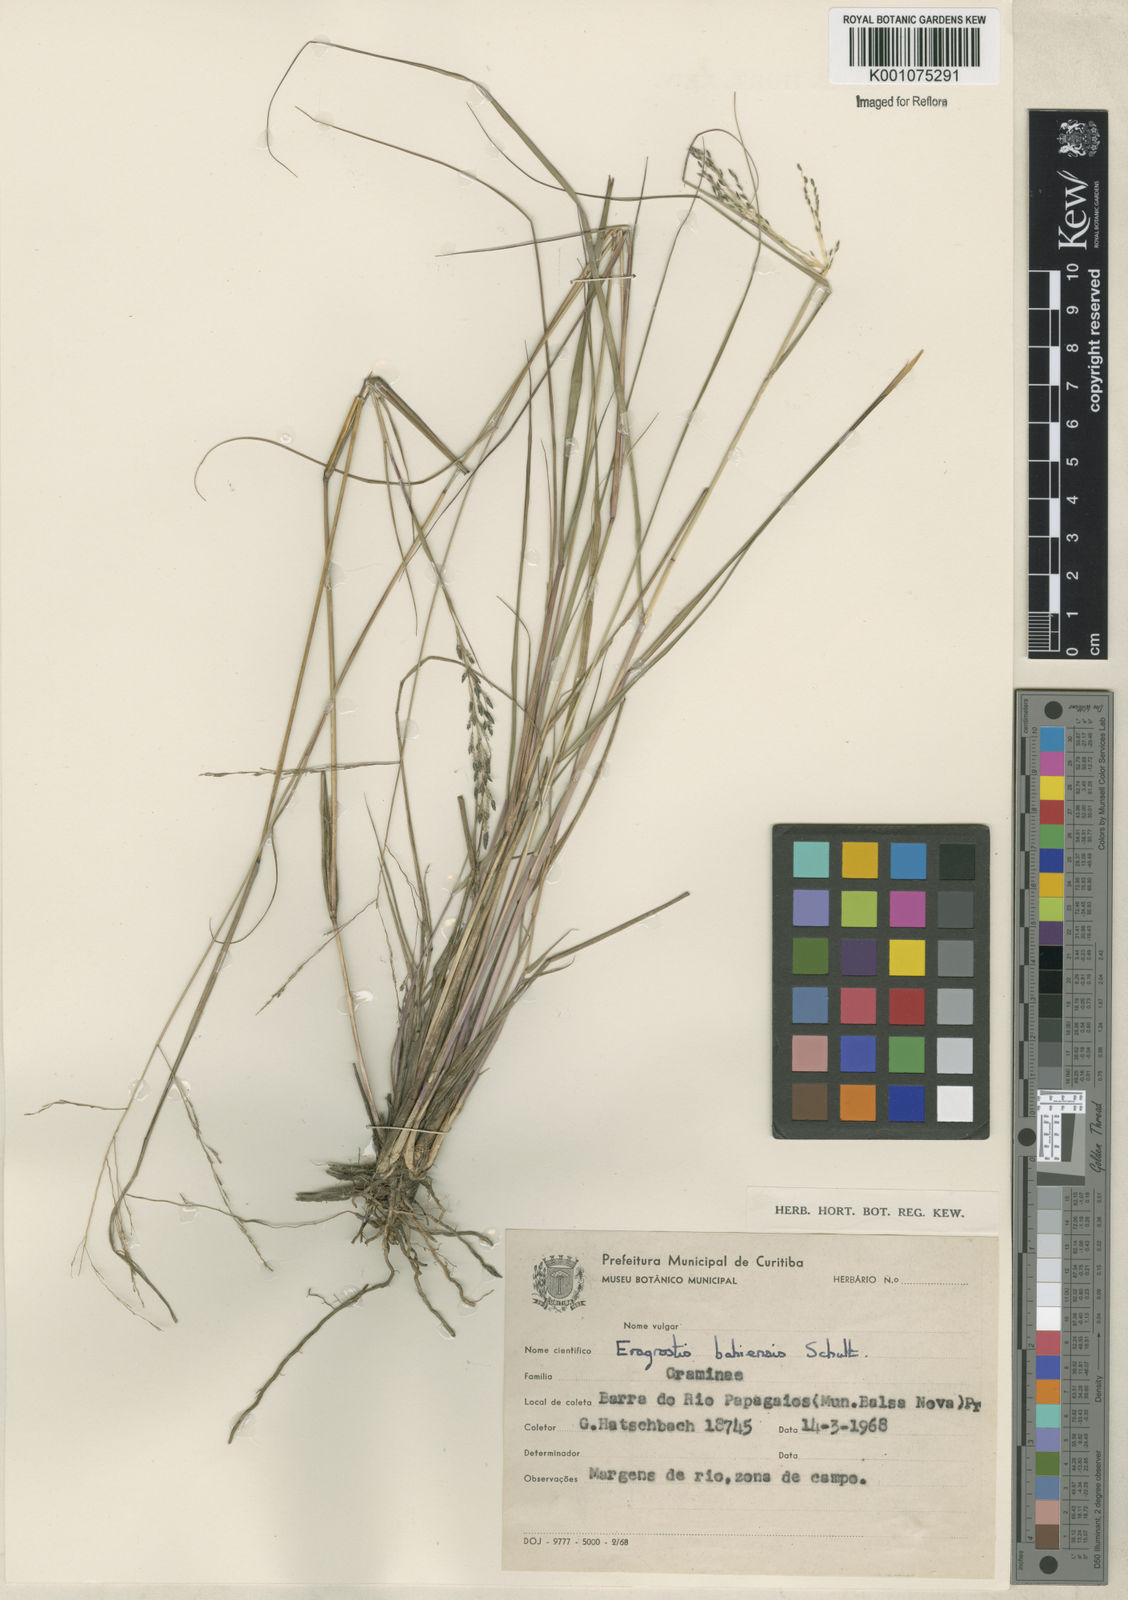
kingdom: Plantae
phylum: Tracheophyta
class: Liliopsida
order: Poales
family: Poaceae
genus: Eragrostis
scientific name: Eragrostis bahiensis
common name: Bahia lovegrass
